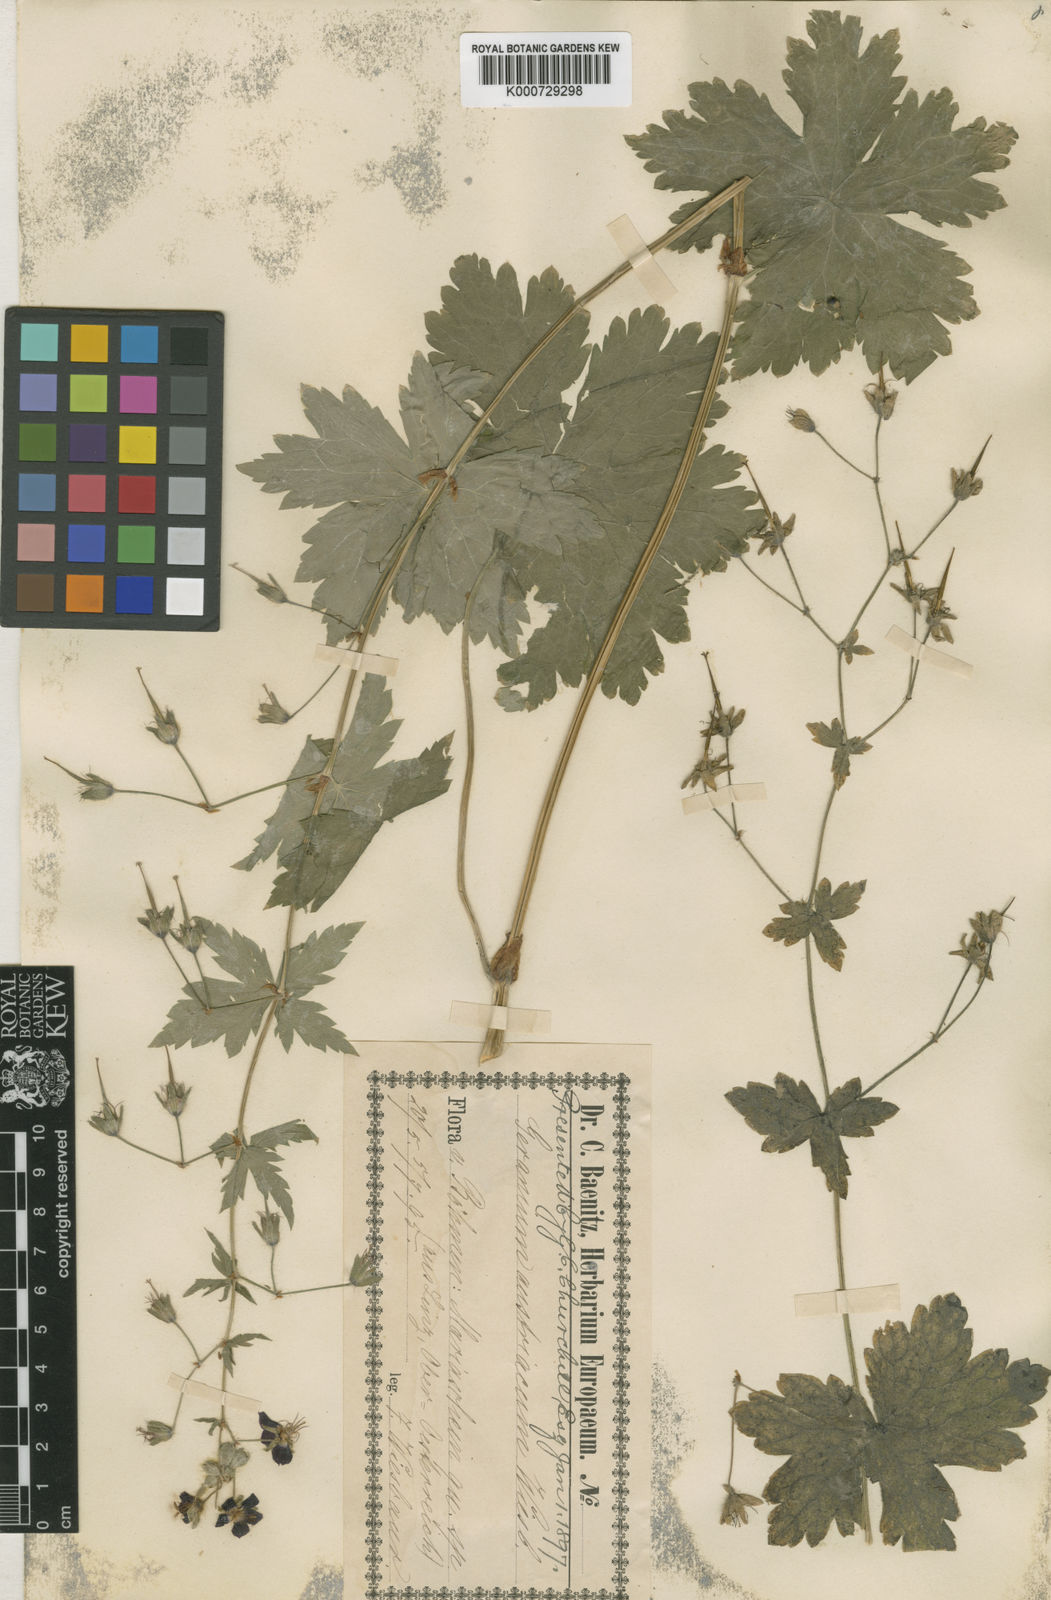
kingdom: Plantae
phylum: Tracheophyta
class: Magnoliopsida
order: Geraniales
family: Geraniaceae
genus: Geranium
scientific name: Geranium phaeum
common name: Dusky crane's-bill
